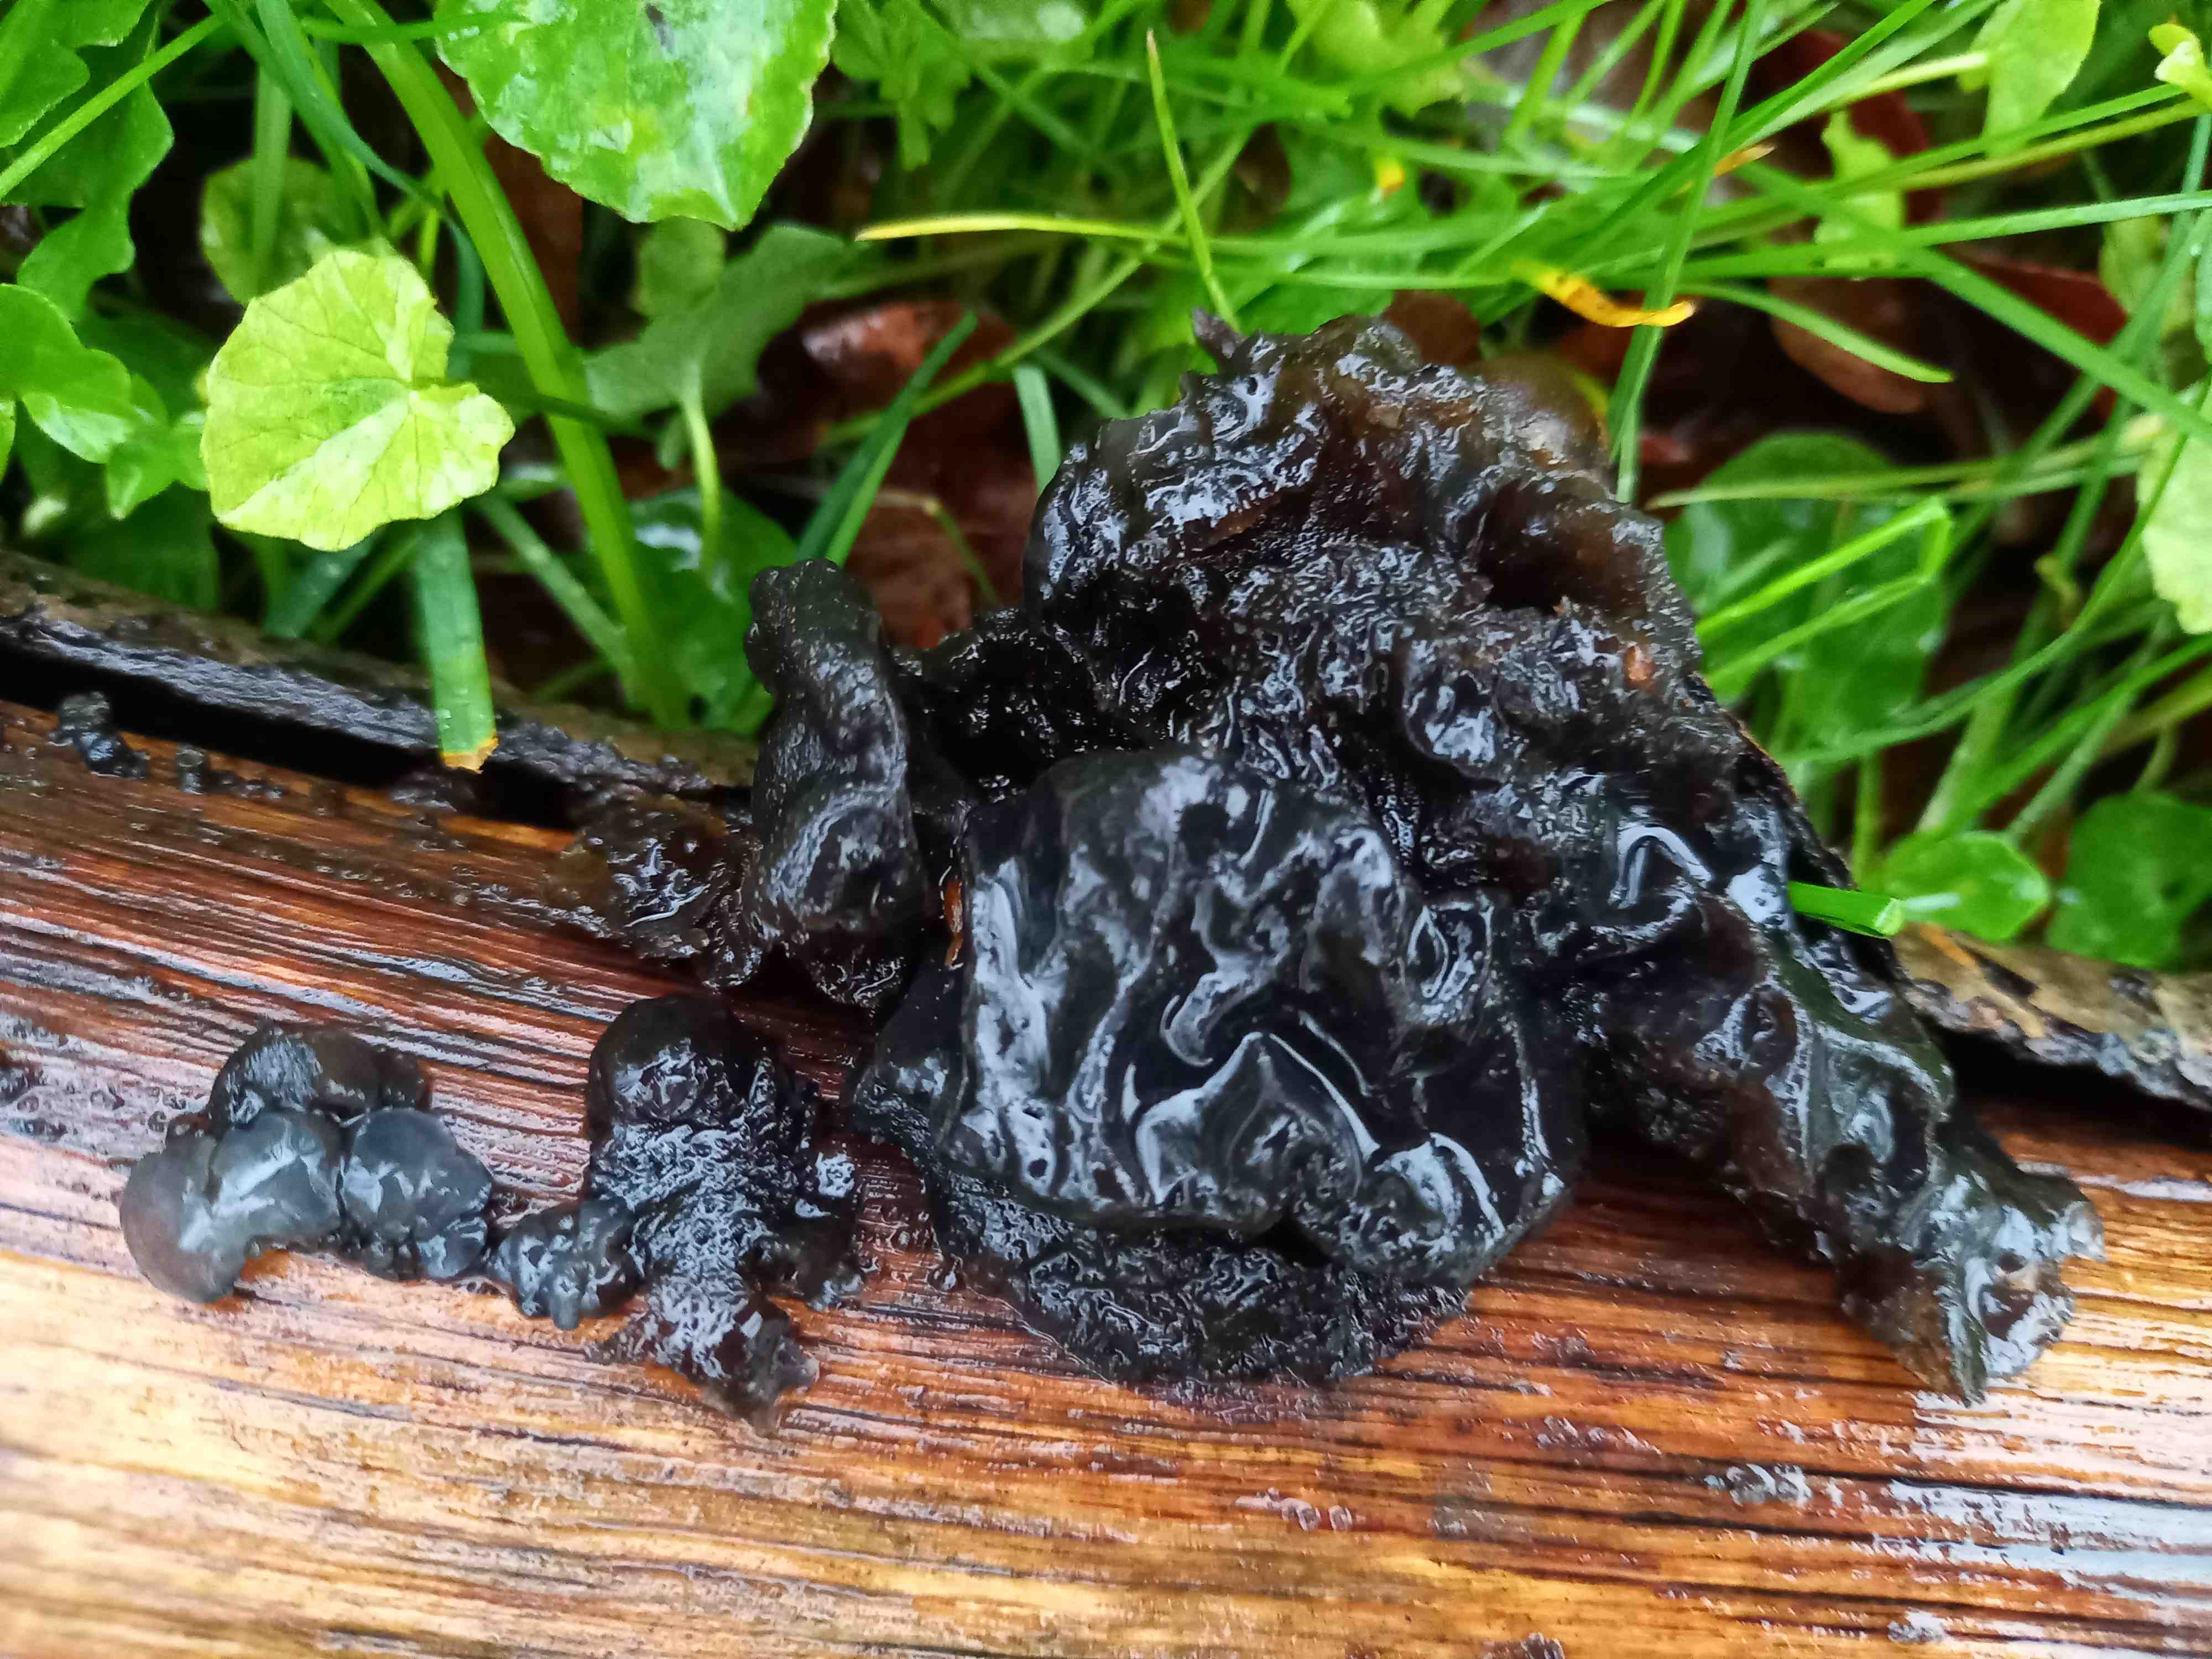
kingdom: Fungi
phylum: Basidiomycota
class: Agaricomycetes
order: Auriculariales
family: Auriculariaceae
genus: Exidia
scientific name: Exidia nigricans
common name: almindelig bævretop
